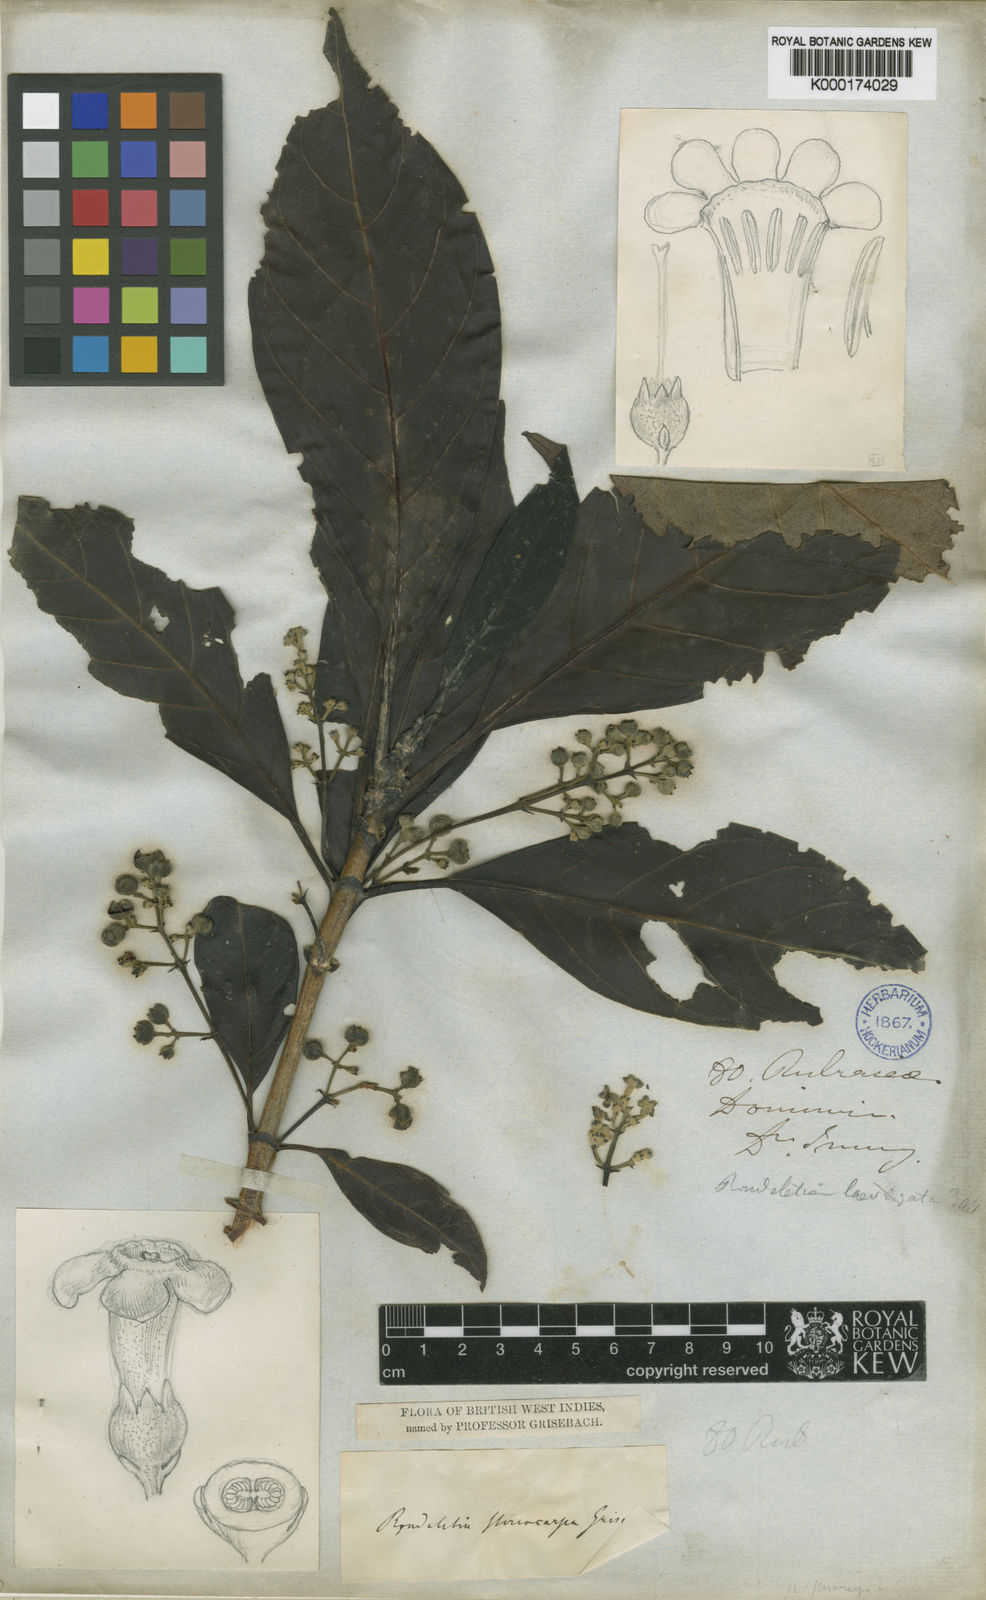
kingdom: Plantae
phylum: Tracheophyta
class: Magnoliopsida
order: Gentianales
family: Rubiaceae
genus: Rondeletia
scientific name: Rondeletia parviflora
